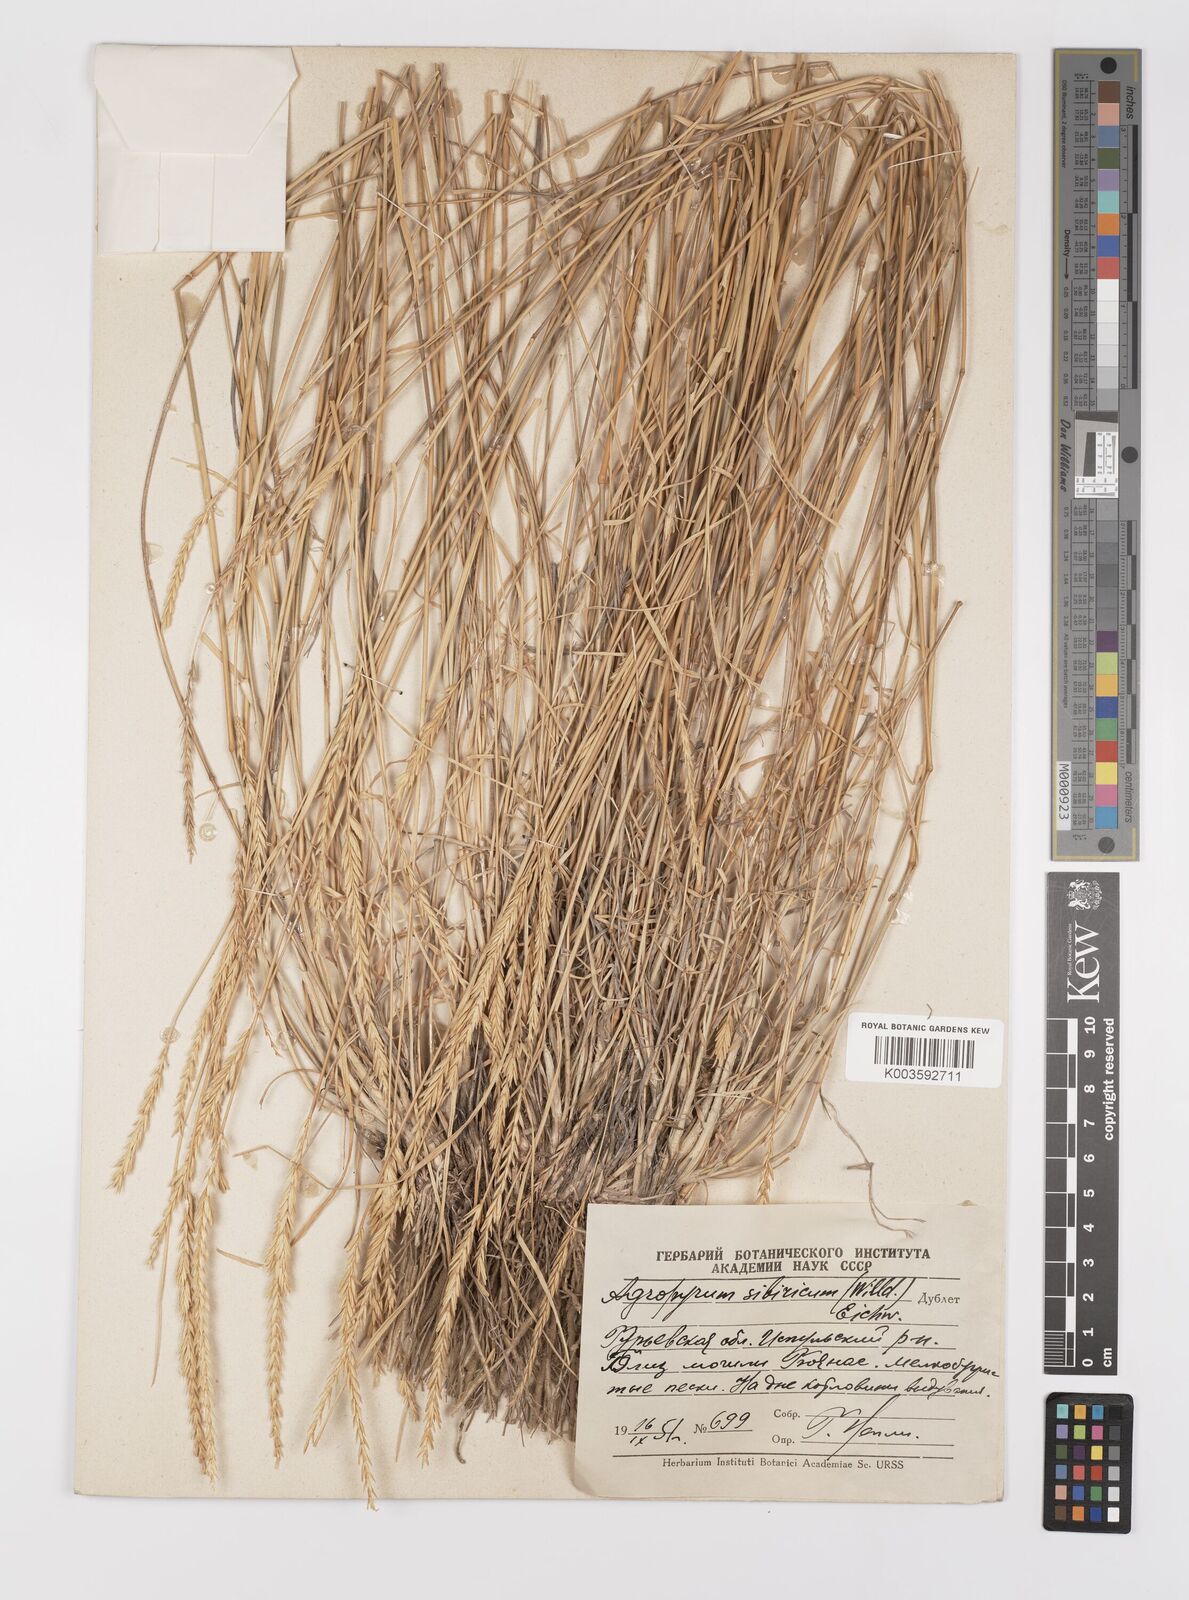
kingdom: Plantae
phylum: Tracheophyta
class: Liliopsida
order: Poales
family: Poaceae
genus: Agropyron
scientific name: Agropyron fragile
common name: Siberian wheatgrass
